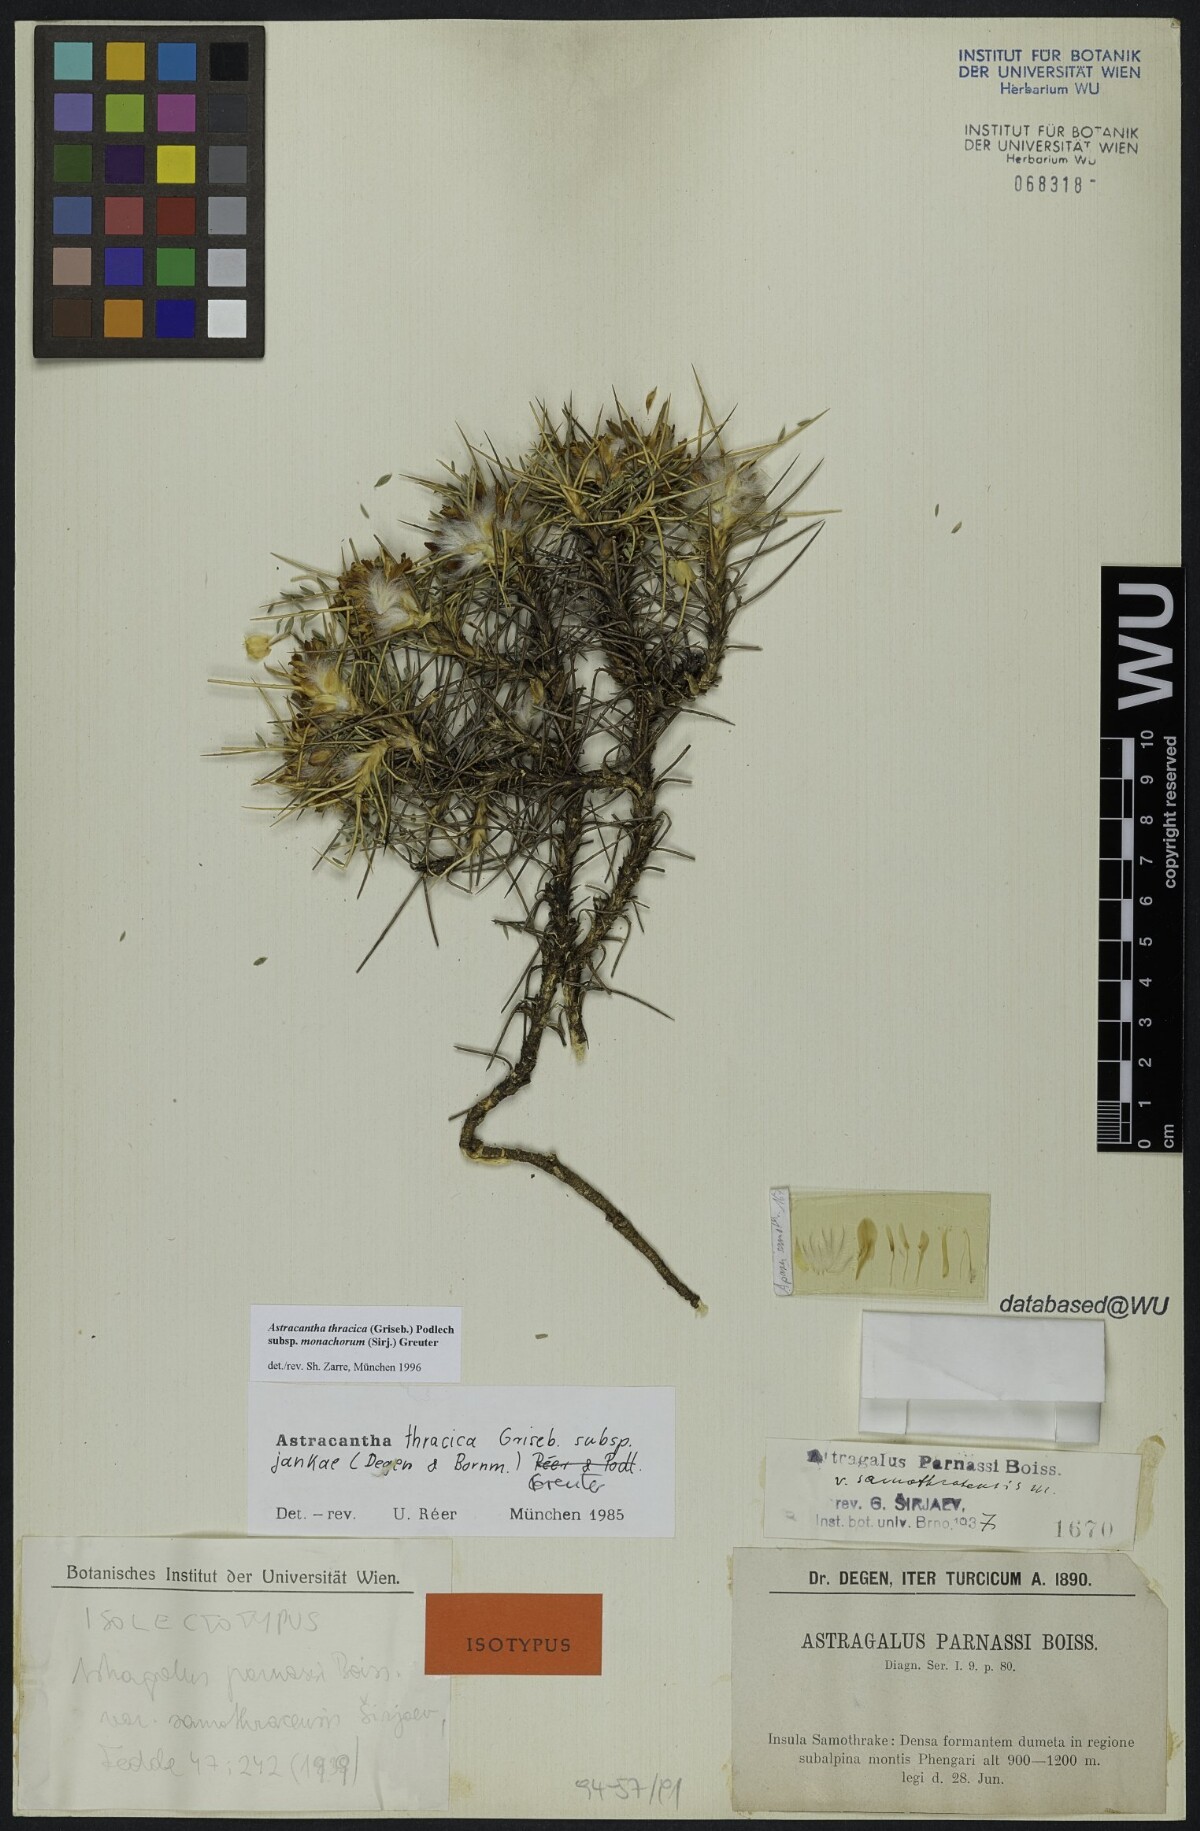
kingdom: Plantae
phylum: Tracheophyta
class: Magnoliopsida
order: Fabales
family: Fabaceae
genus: Astragalus
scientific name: Astragalus thracicus
